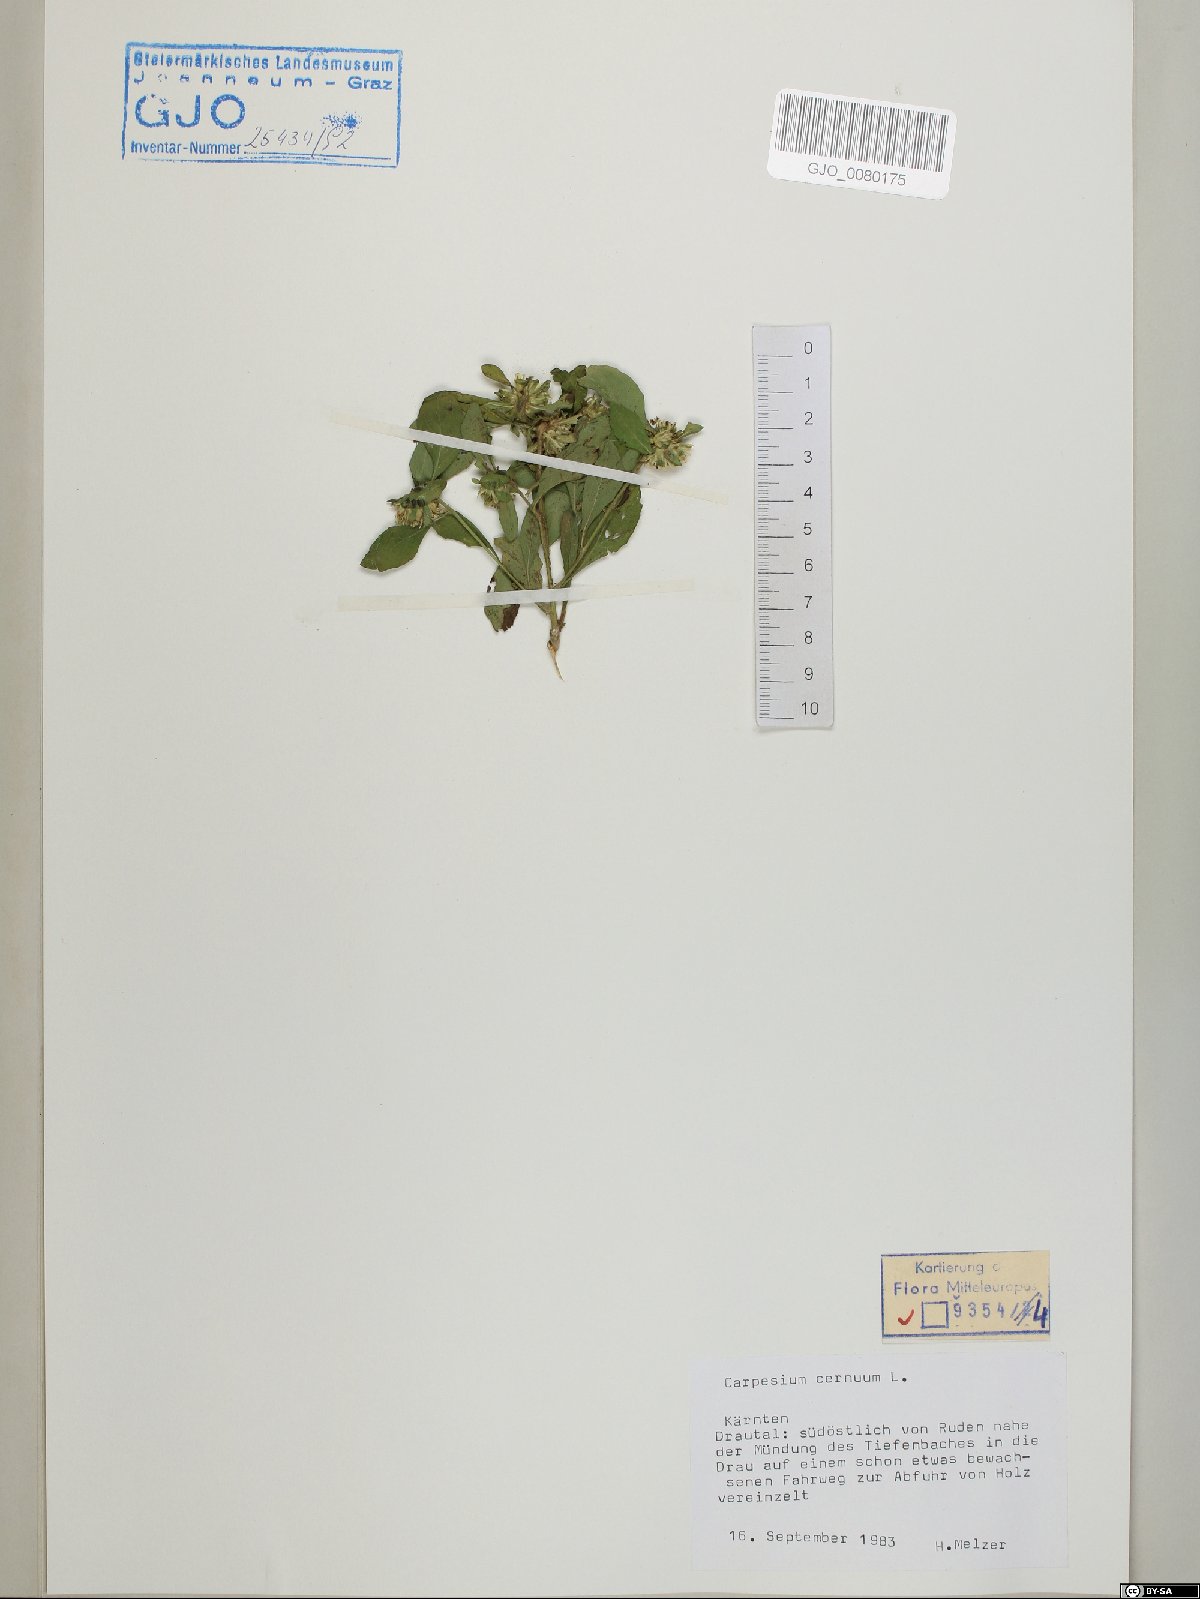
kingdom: Plantae
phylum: Tracheophyta
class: Magnoliopsida
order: Asterales
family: Asteraceae
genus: Carpesium
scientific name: Carpesium cernuum
